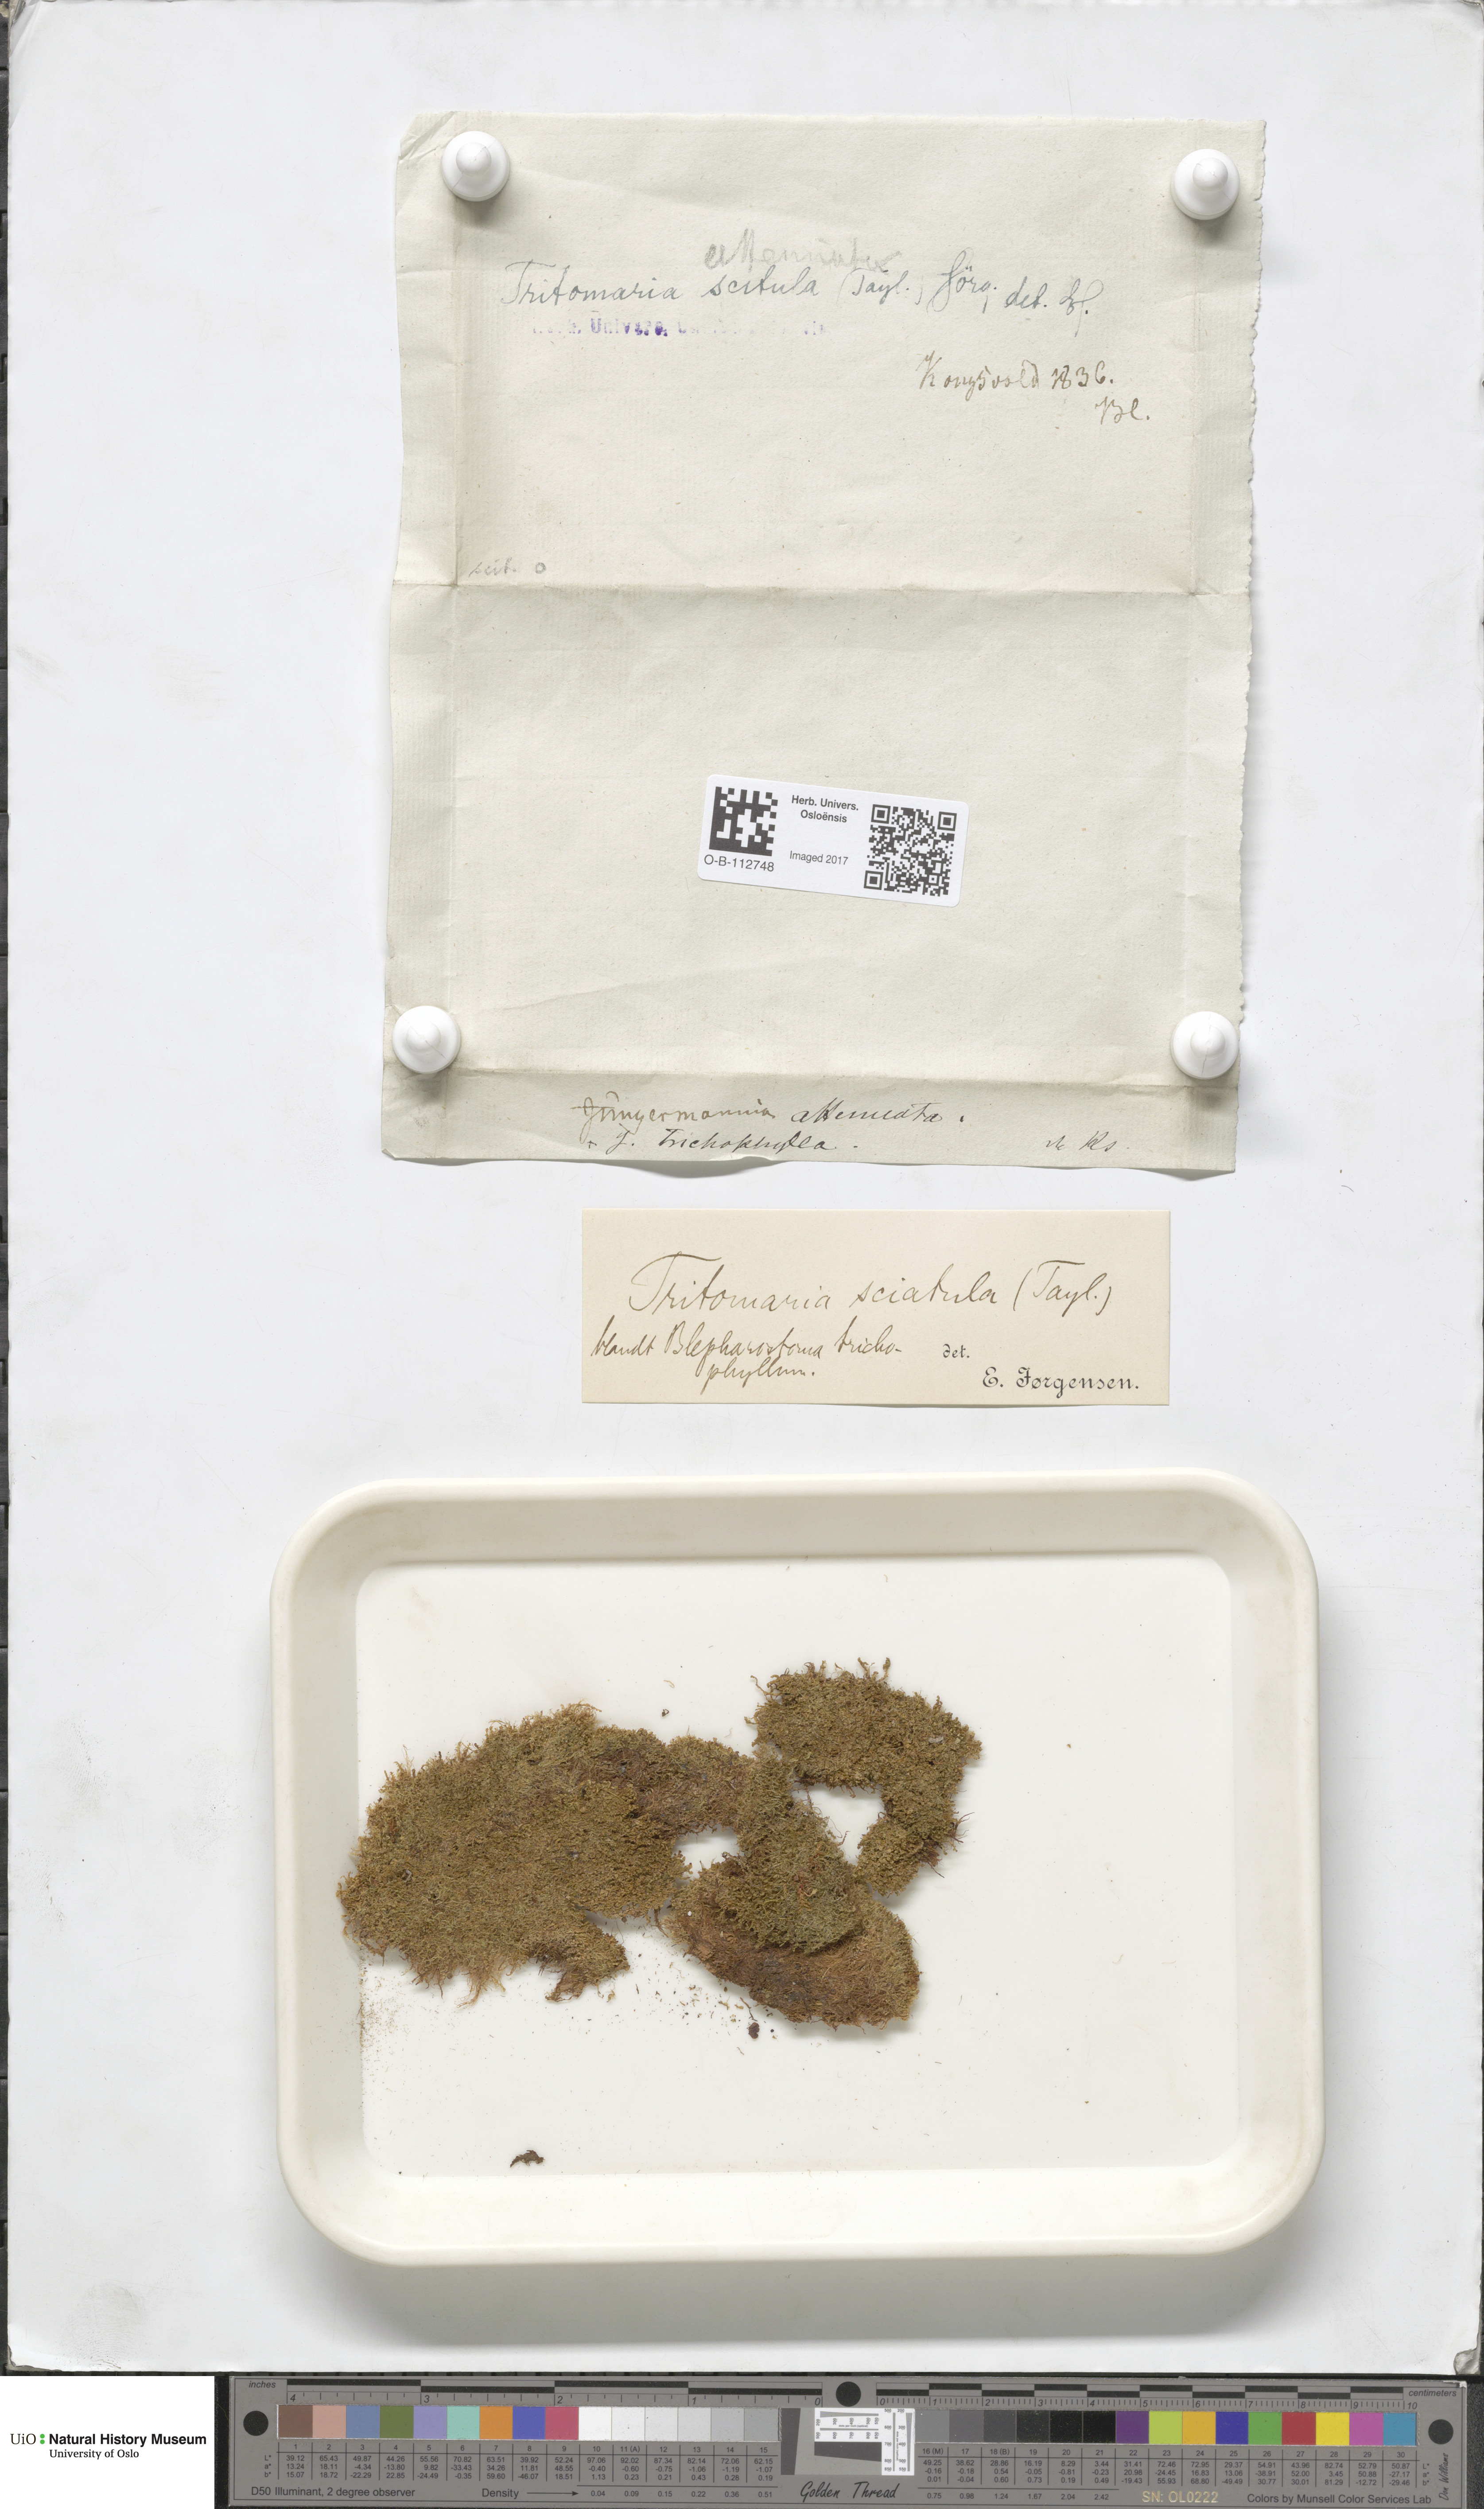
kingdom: Plantae
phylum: Marchantiophyta
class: Jungermanniopsida
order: Jungermanniales
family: Lophoziaceae
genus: Tritomaria
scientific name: Tritomaria scitula
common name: Mountain notchwort
